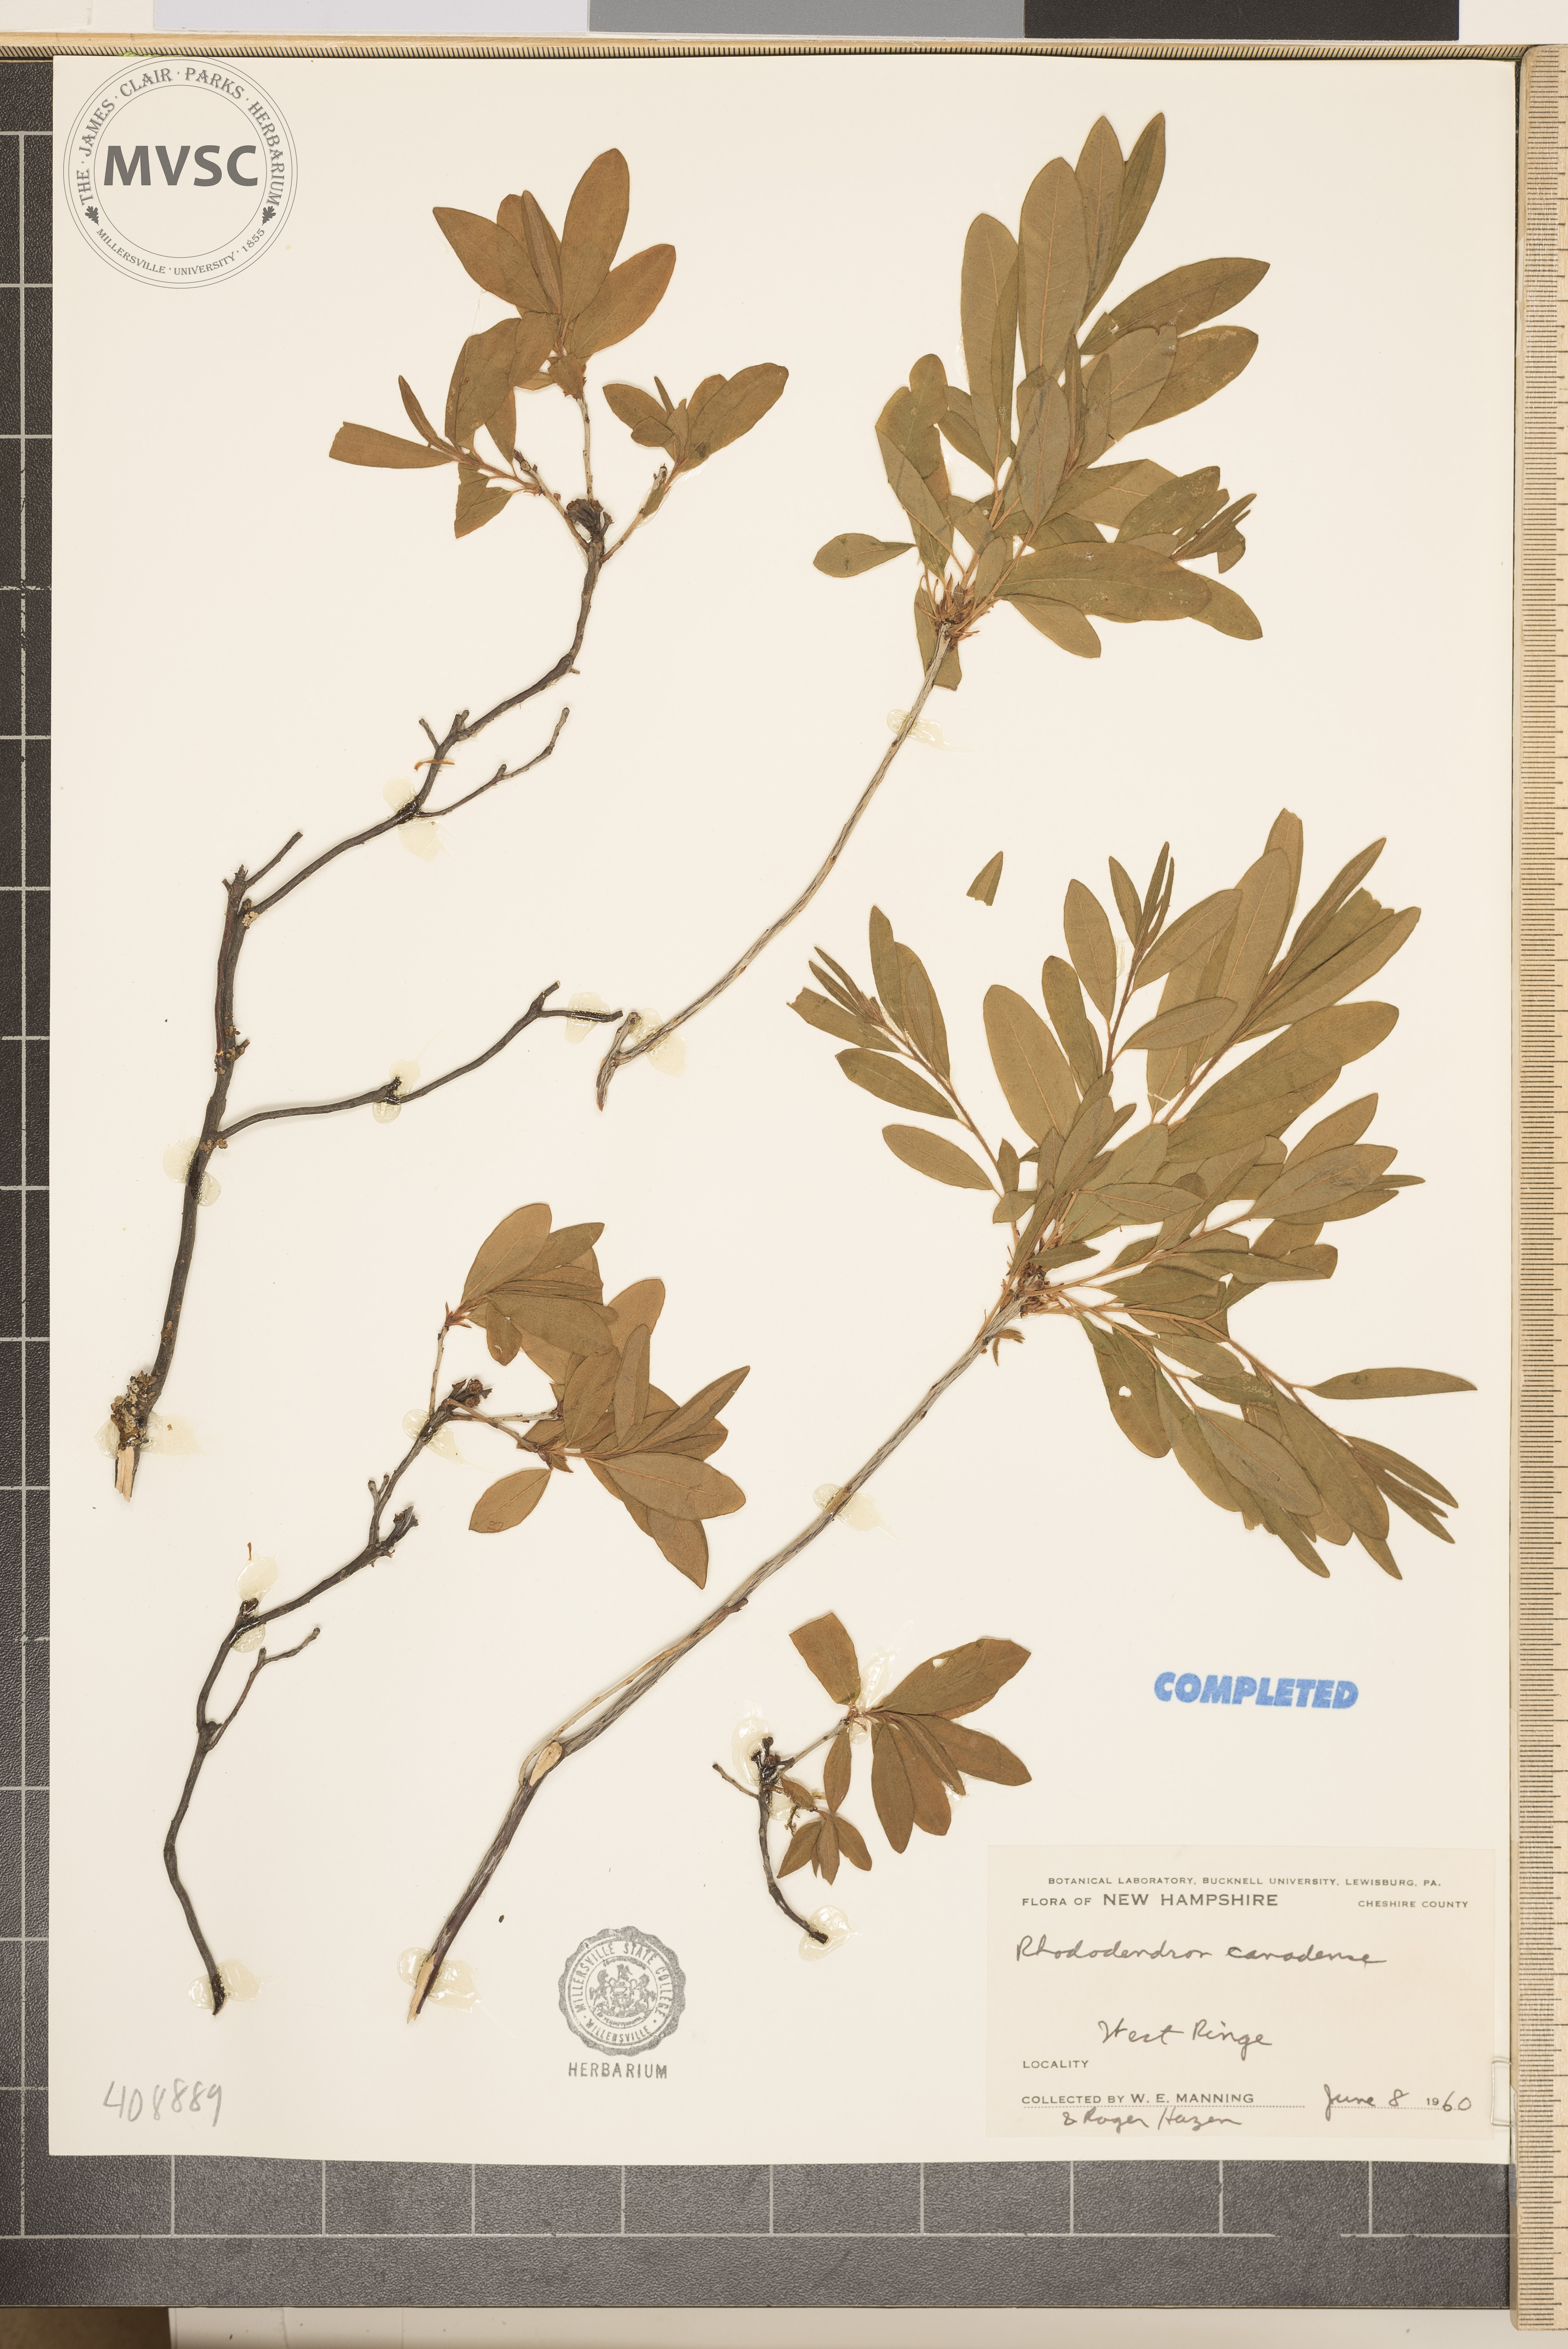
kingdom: Plantae
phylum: Tracheophyta
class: Magnoliopsida
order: Ericales
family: Ericaceae
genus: Rhododendron
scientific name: Rhododendron canadense
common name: Rhodora
